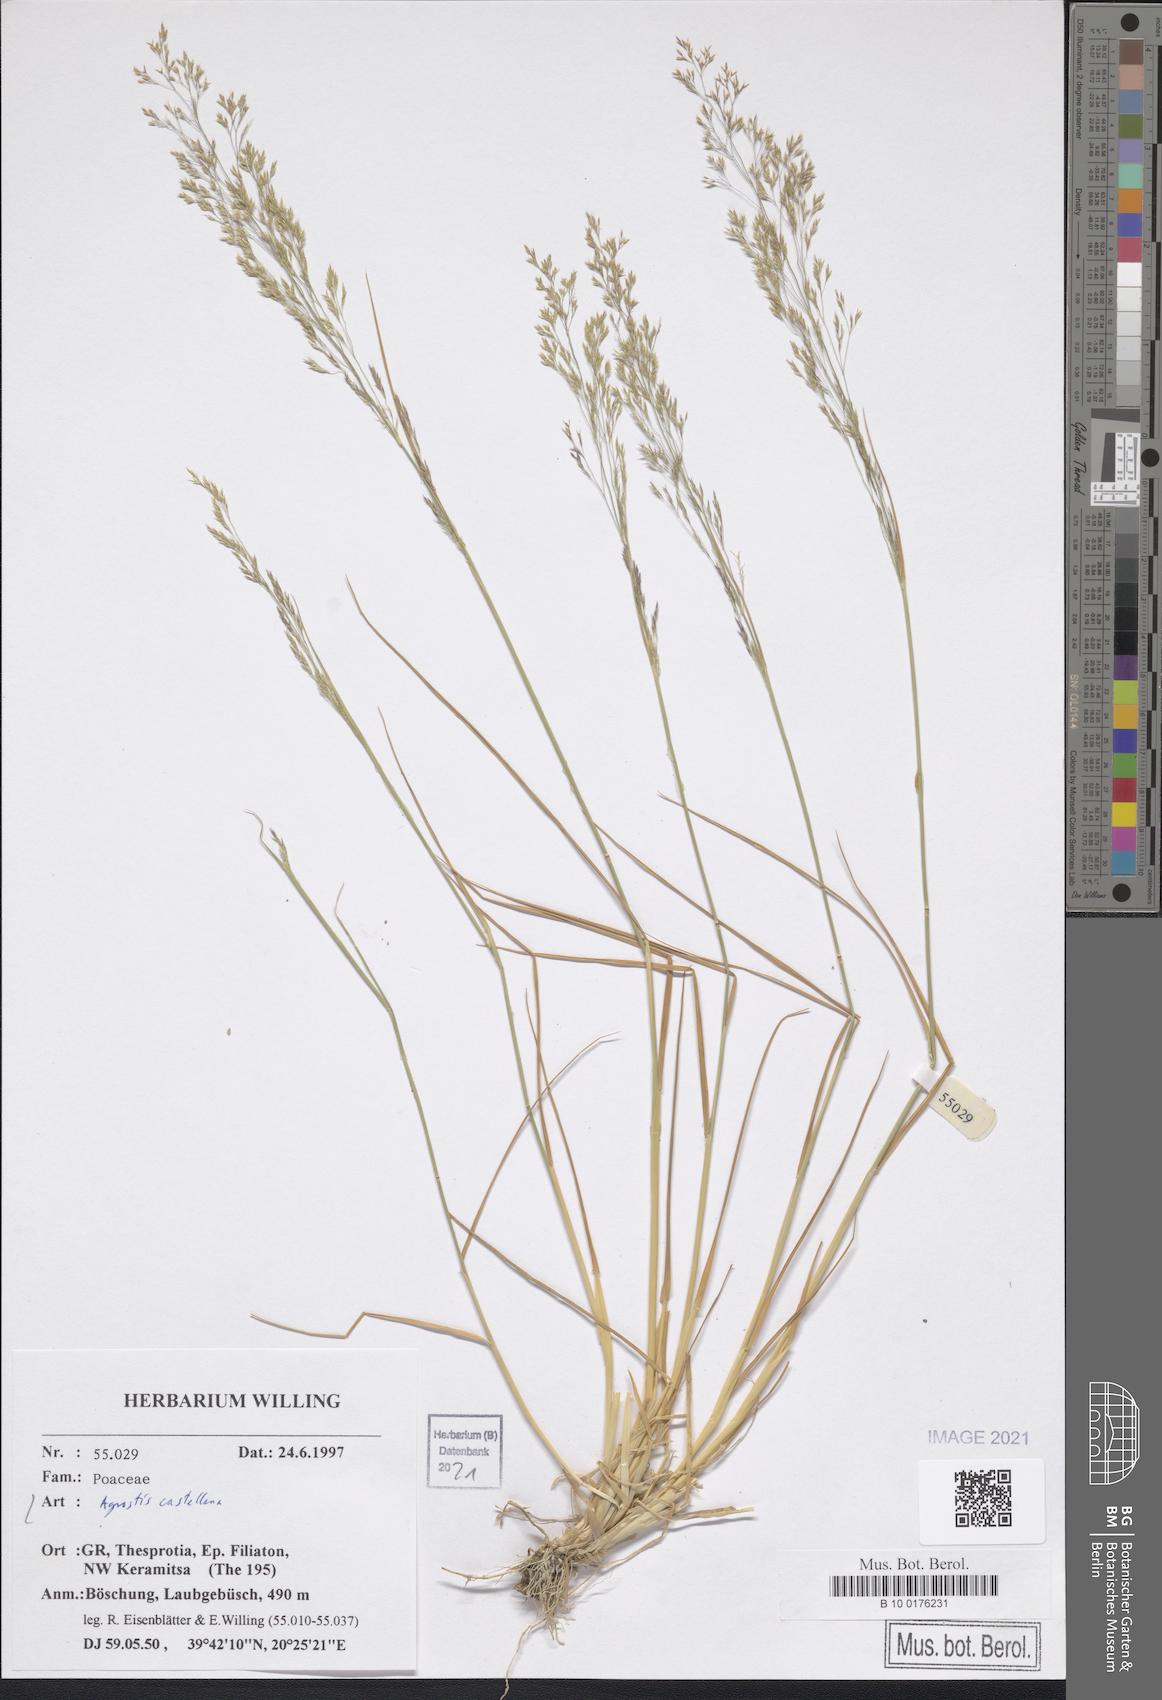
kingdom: Plantae
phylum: Tracheophyta
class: Liliopsida
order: Poales
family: Poaceae
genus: Agrostis
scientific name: Agrostis castellana
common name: Highland bent
